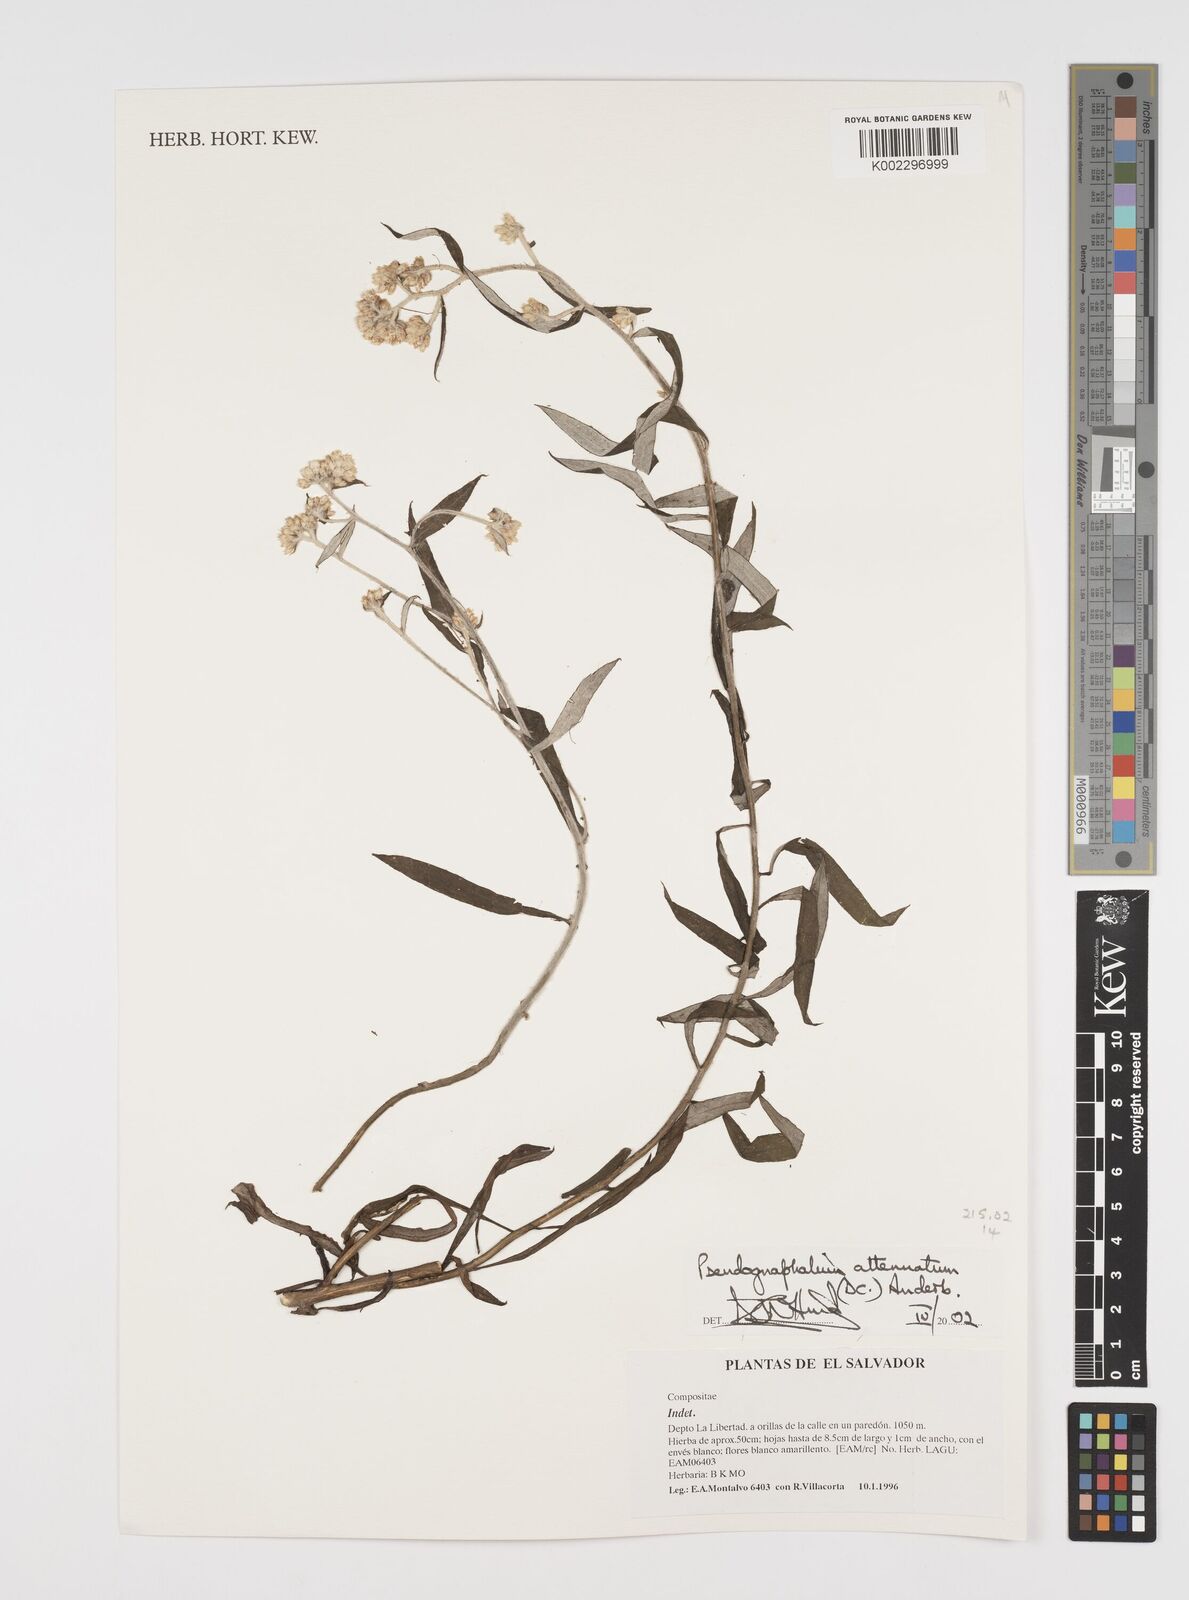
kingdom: Plantae
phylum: Tracheophyta
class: Magnoliopsida
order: Asterales
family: Asteraceae
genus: Pseudognaphalium
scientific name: Pseudognaphalium attenuatum
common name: Tapered cudweed
